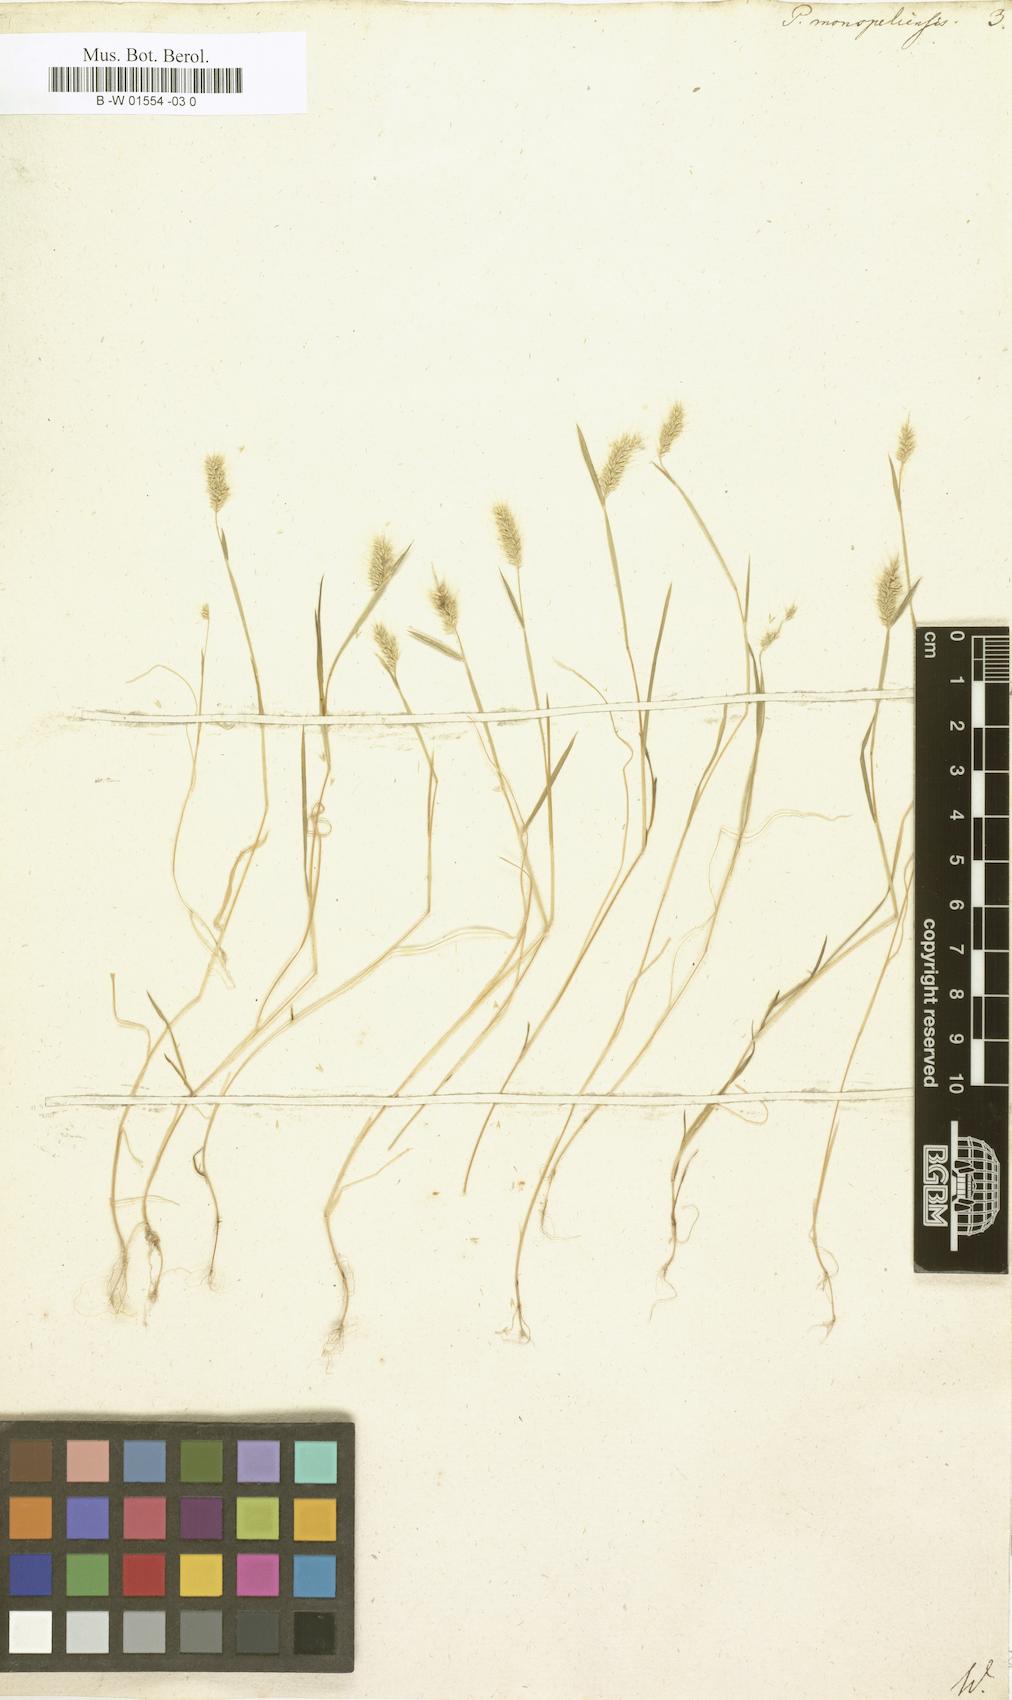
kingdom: Plantae
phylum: Tracheophyta
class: Liliopsida
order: Poales
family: Poaceae
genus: Polypogon
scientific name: Polypogon monspeliensis
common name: Annual rabbitsfoot grass
